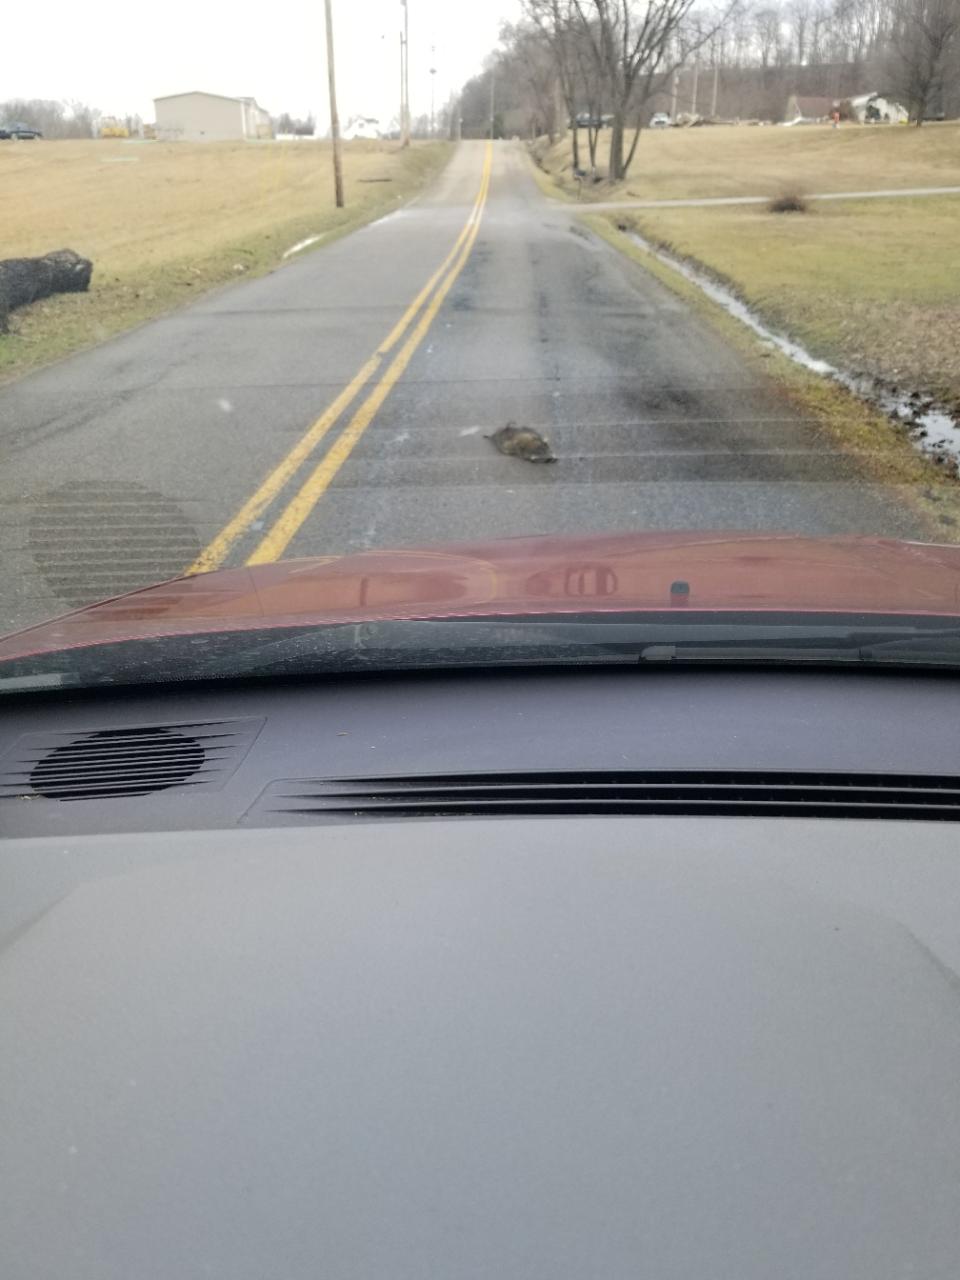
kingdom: Animalia
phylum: Chordata
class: Mammalia
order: Carnivora
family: Procyonidae
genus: Procyon
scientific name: Procyon lotor
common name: Raccoon
